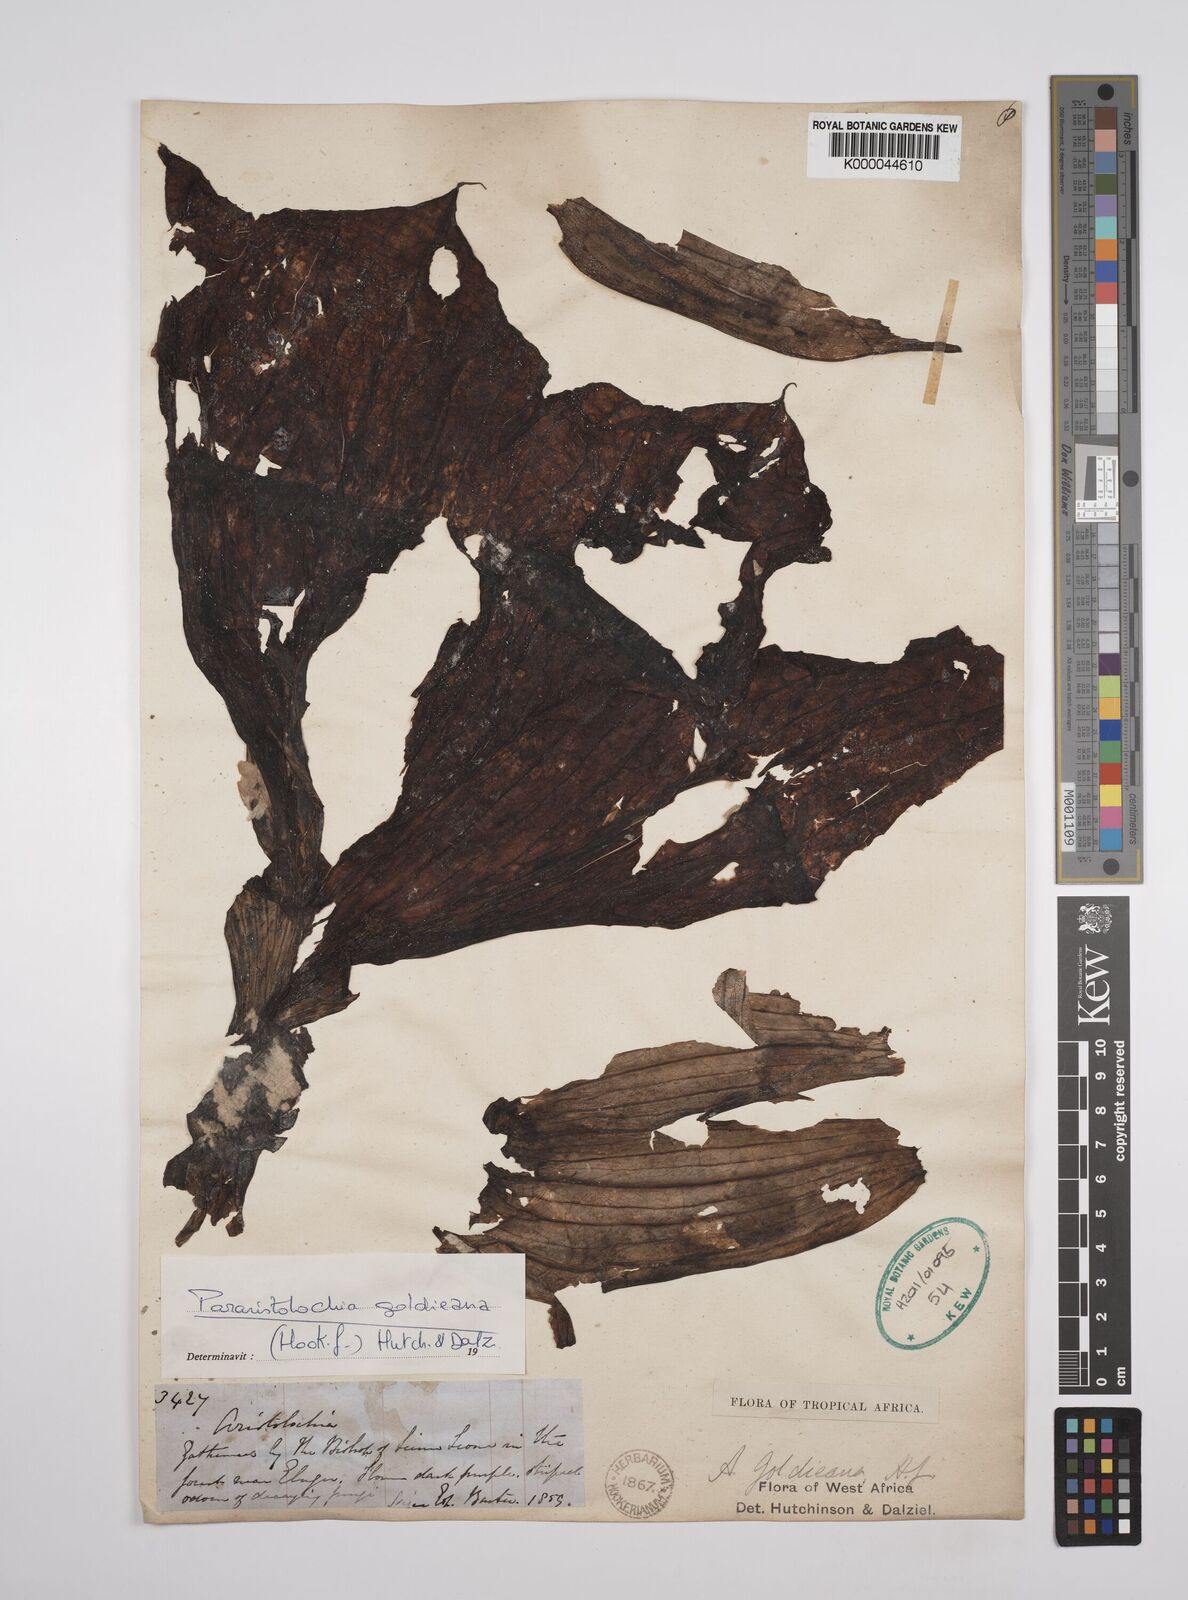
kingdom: Plantae
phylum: Tracheophyta
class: Magnoliopsida
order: Piperales
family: Aristolochiaceae
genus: Aristolochia
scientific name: Aristolochia goldieana
